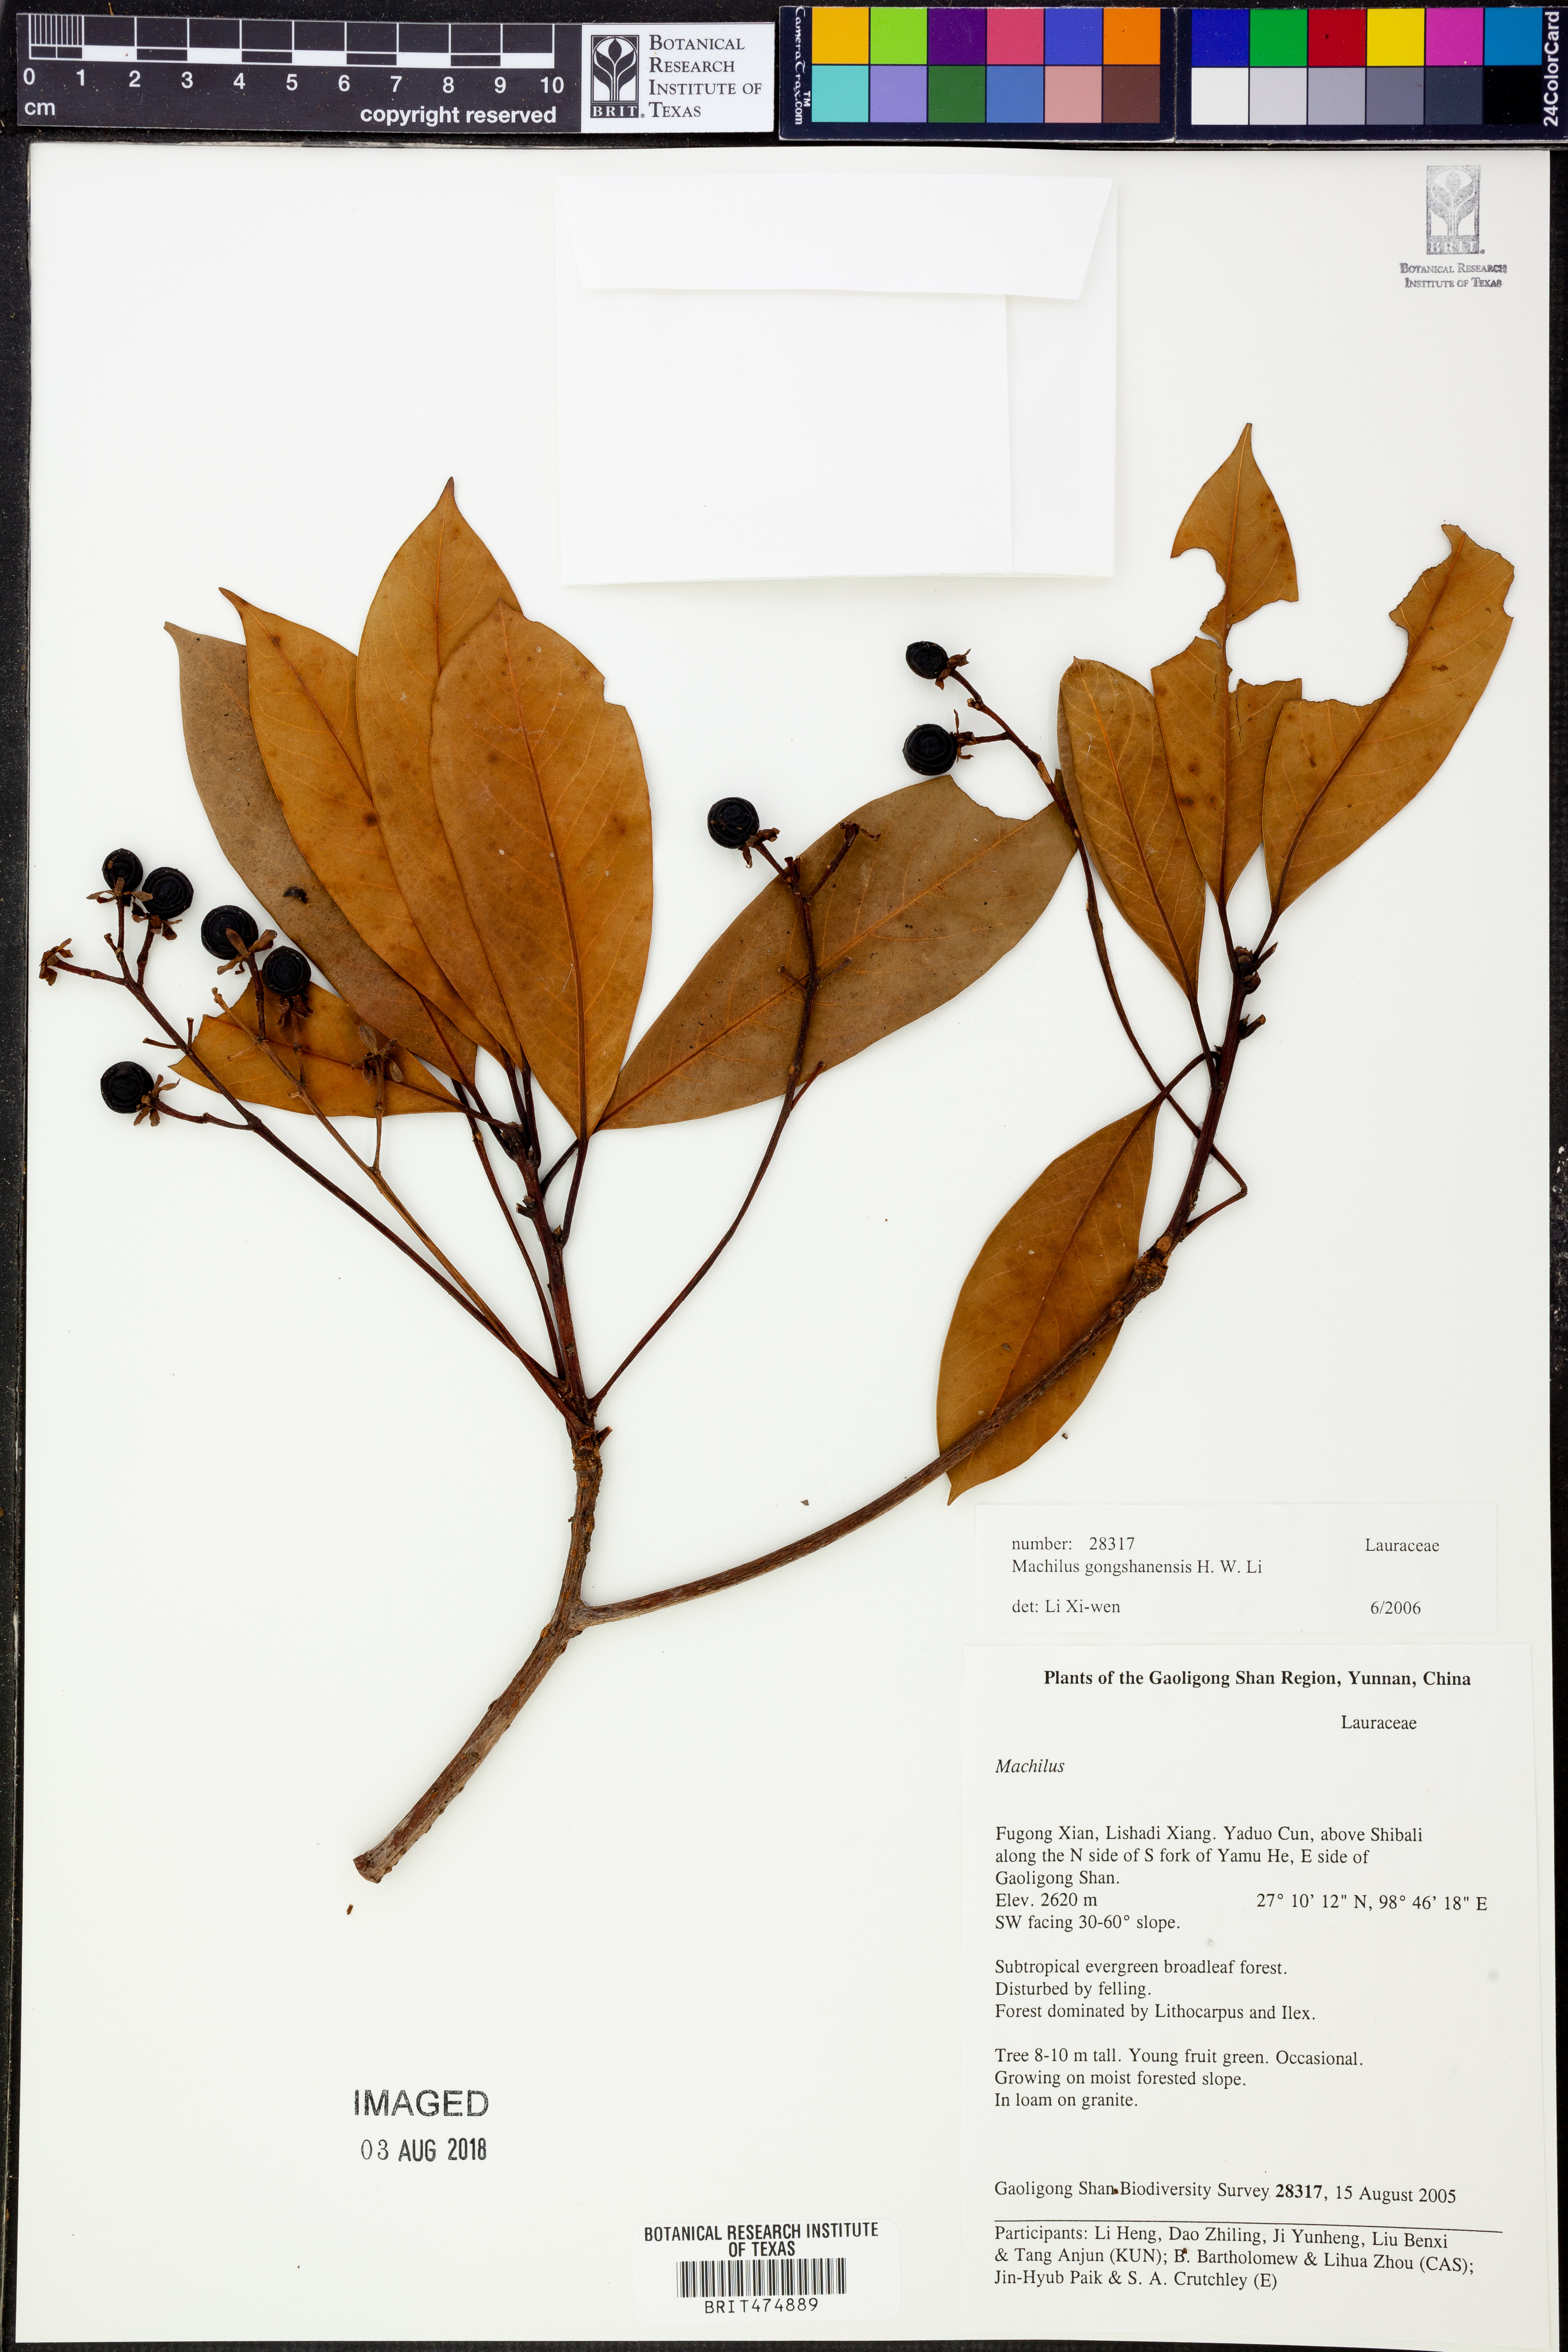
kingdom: Plantae
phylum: Tracheophyta
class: Magnoliopsida
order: Laurales
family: Lauraceae
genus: Machilus
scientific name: Machilus gongshanensis
